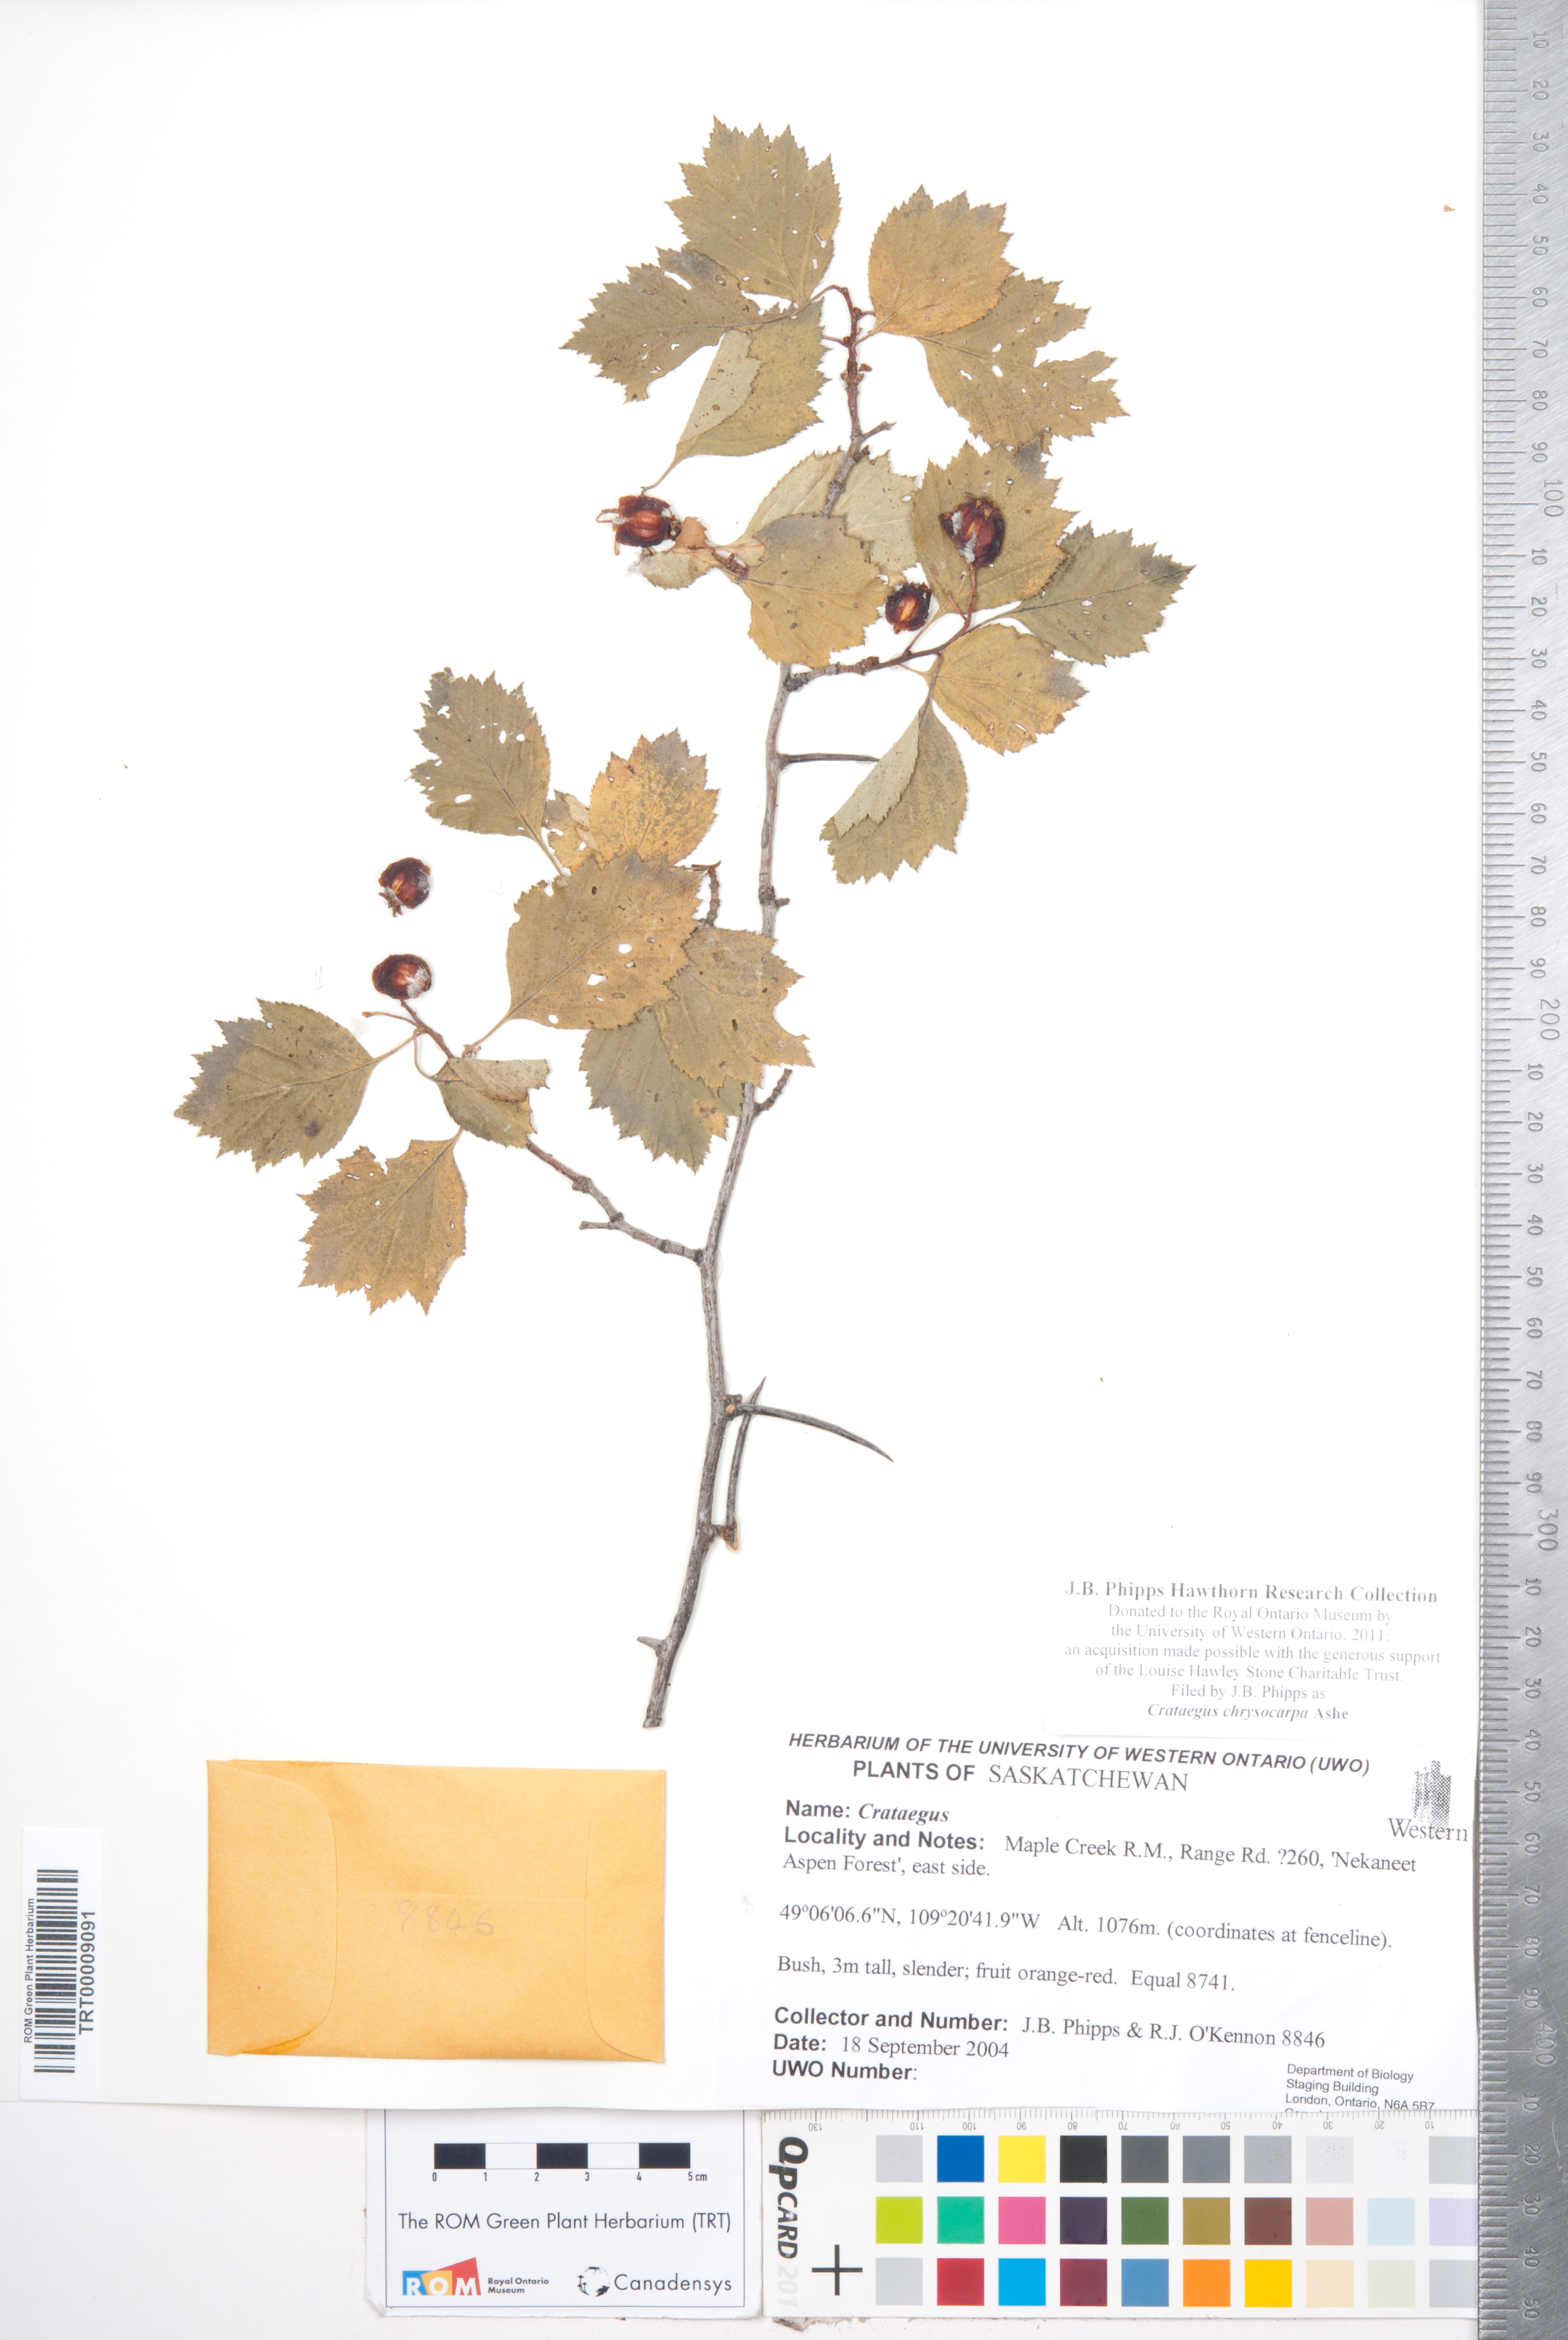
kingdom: Plantae
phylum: Tracheophyta
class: Magnoliopsida
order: Rosales
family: Rosaceae
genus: Crataegus
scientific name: Crataegus chrysocarpa
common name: Fire-berry hawthorn
